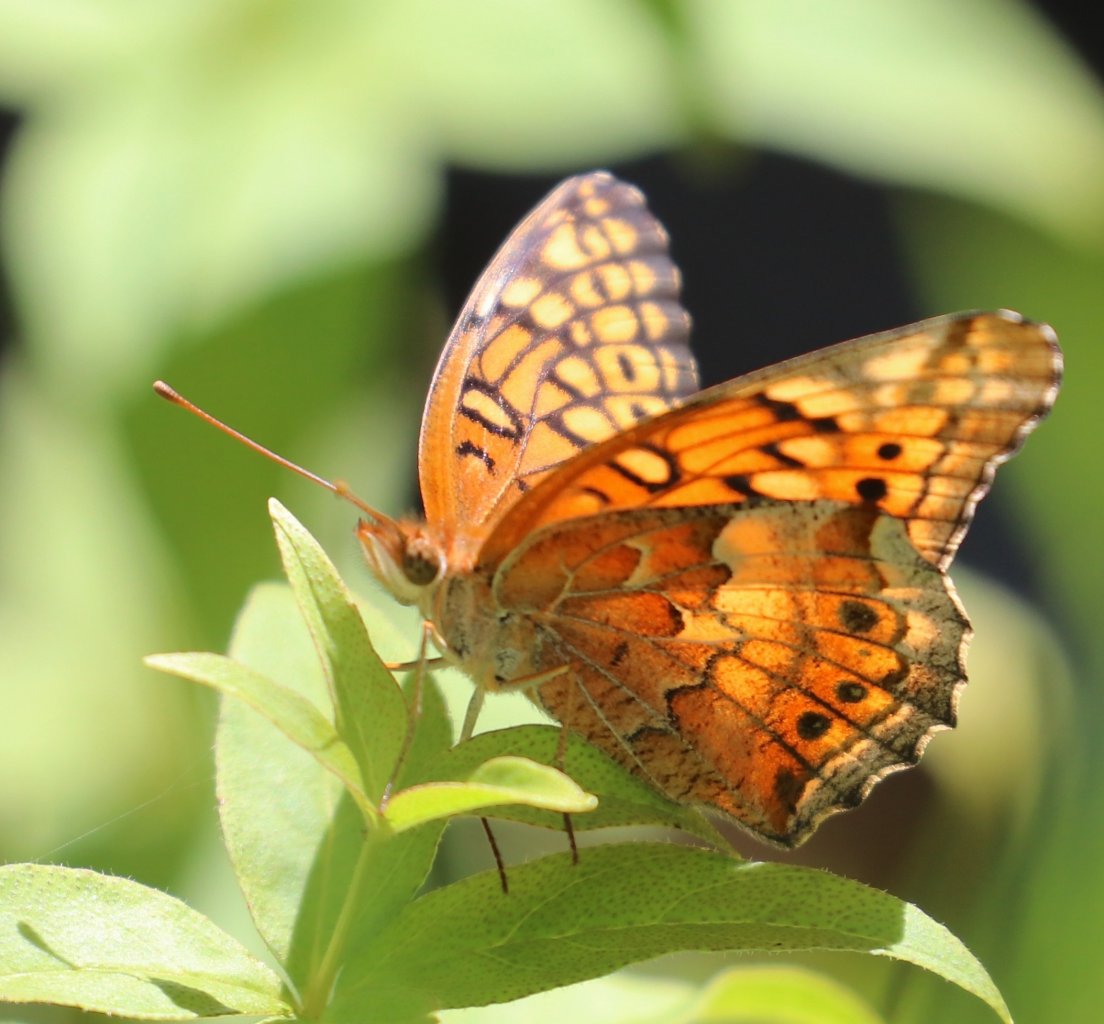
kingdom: Animalia
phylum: Arthropoda
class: Insecta
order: Lepidoptera
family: Nymphalidae
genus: Euptoieta
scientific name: Euptoieta claudia
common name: Variegated Fritillary
